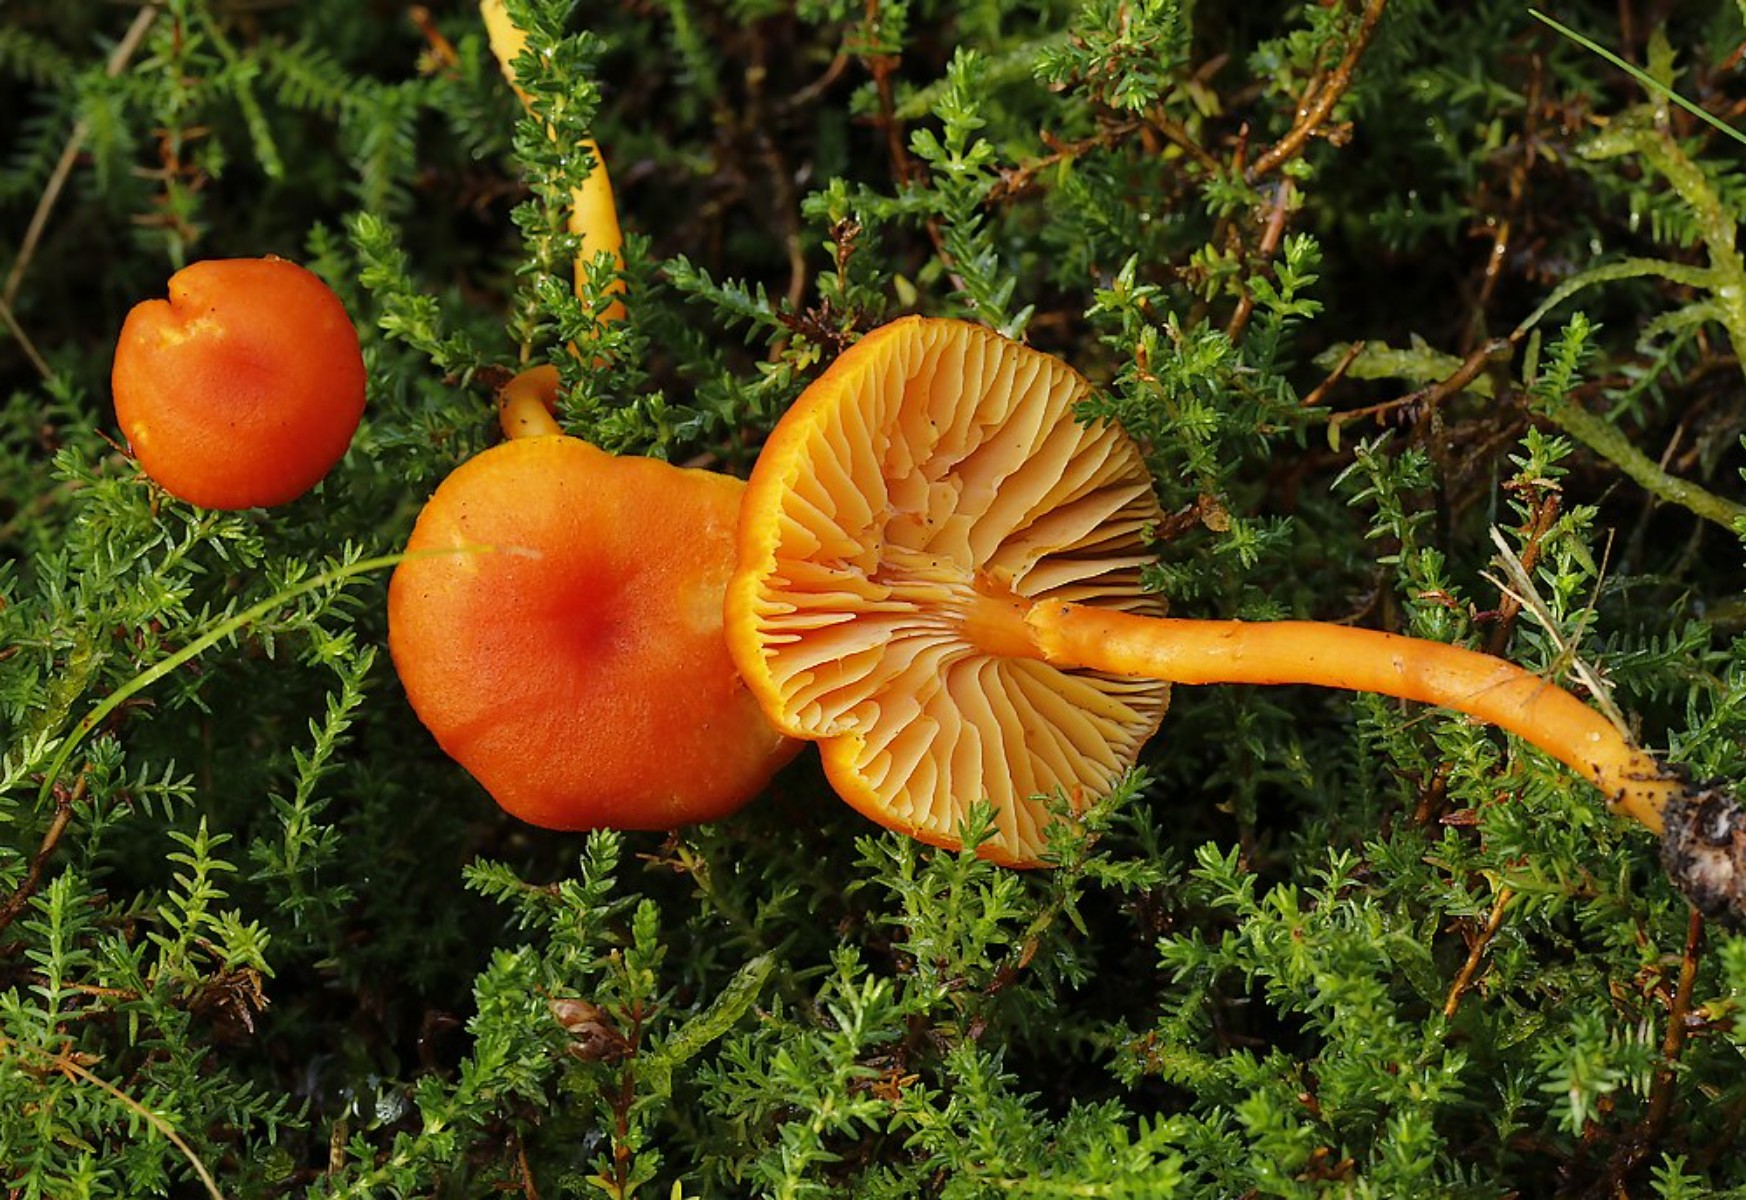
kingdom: Fungi
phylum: Basidiomycota
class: Agaricomycetes
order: Agaricales
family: Hygrophoraceae
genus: Hygrocybe
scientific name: Hygrocybe miniata
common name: mønje-vokshat
